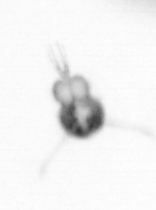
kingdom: Animalia
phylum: Arthropoda
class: Copepoda
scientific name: Copepoda
